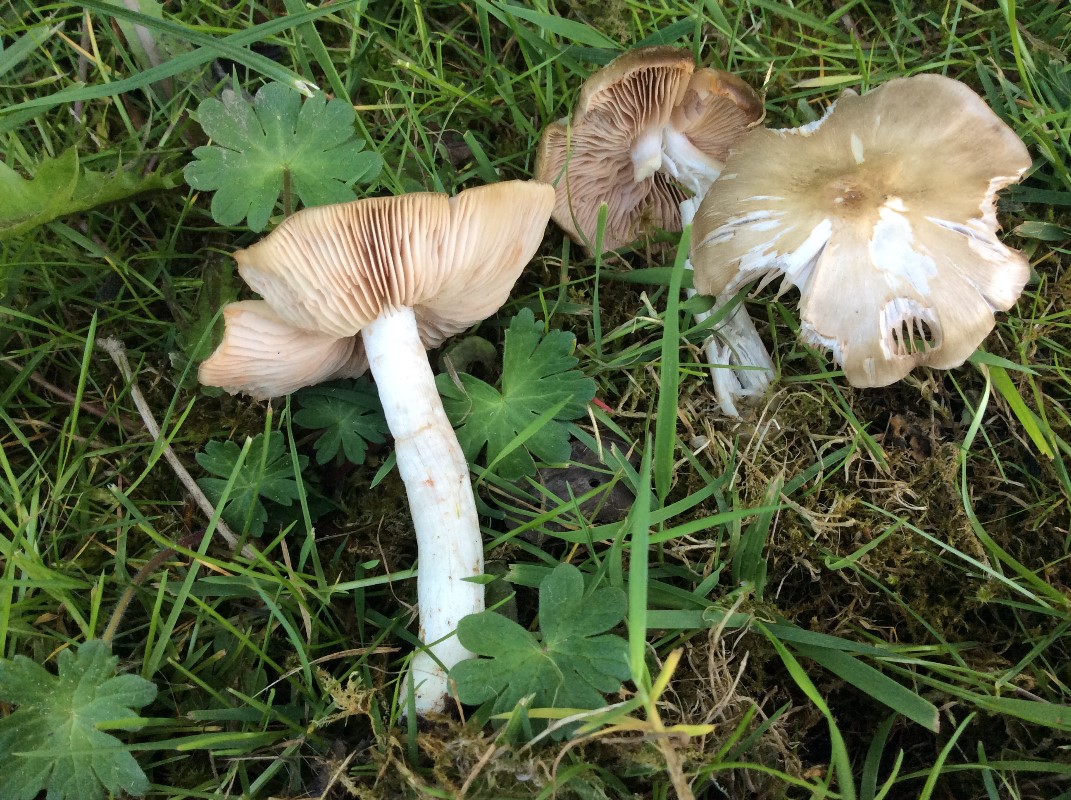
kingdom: Fungi
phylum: Basidiomycota
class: Agaricomycetes
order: Agaricales
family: Entolomataceae
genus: Entoloma
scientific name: Entoloma clypeatum
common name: flammet rødblad
